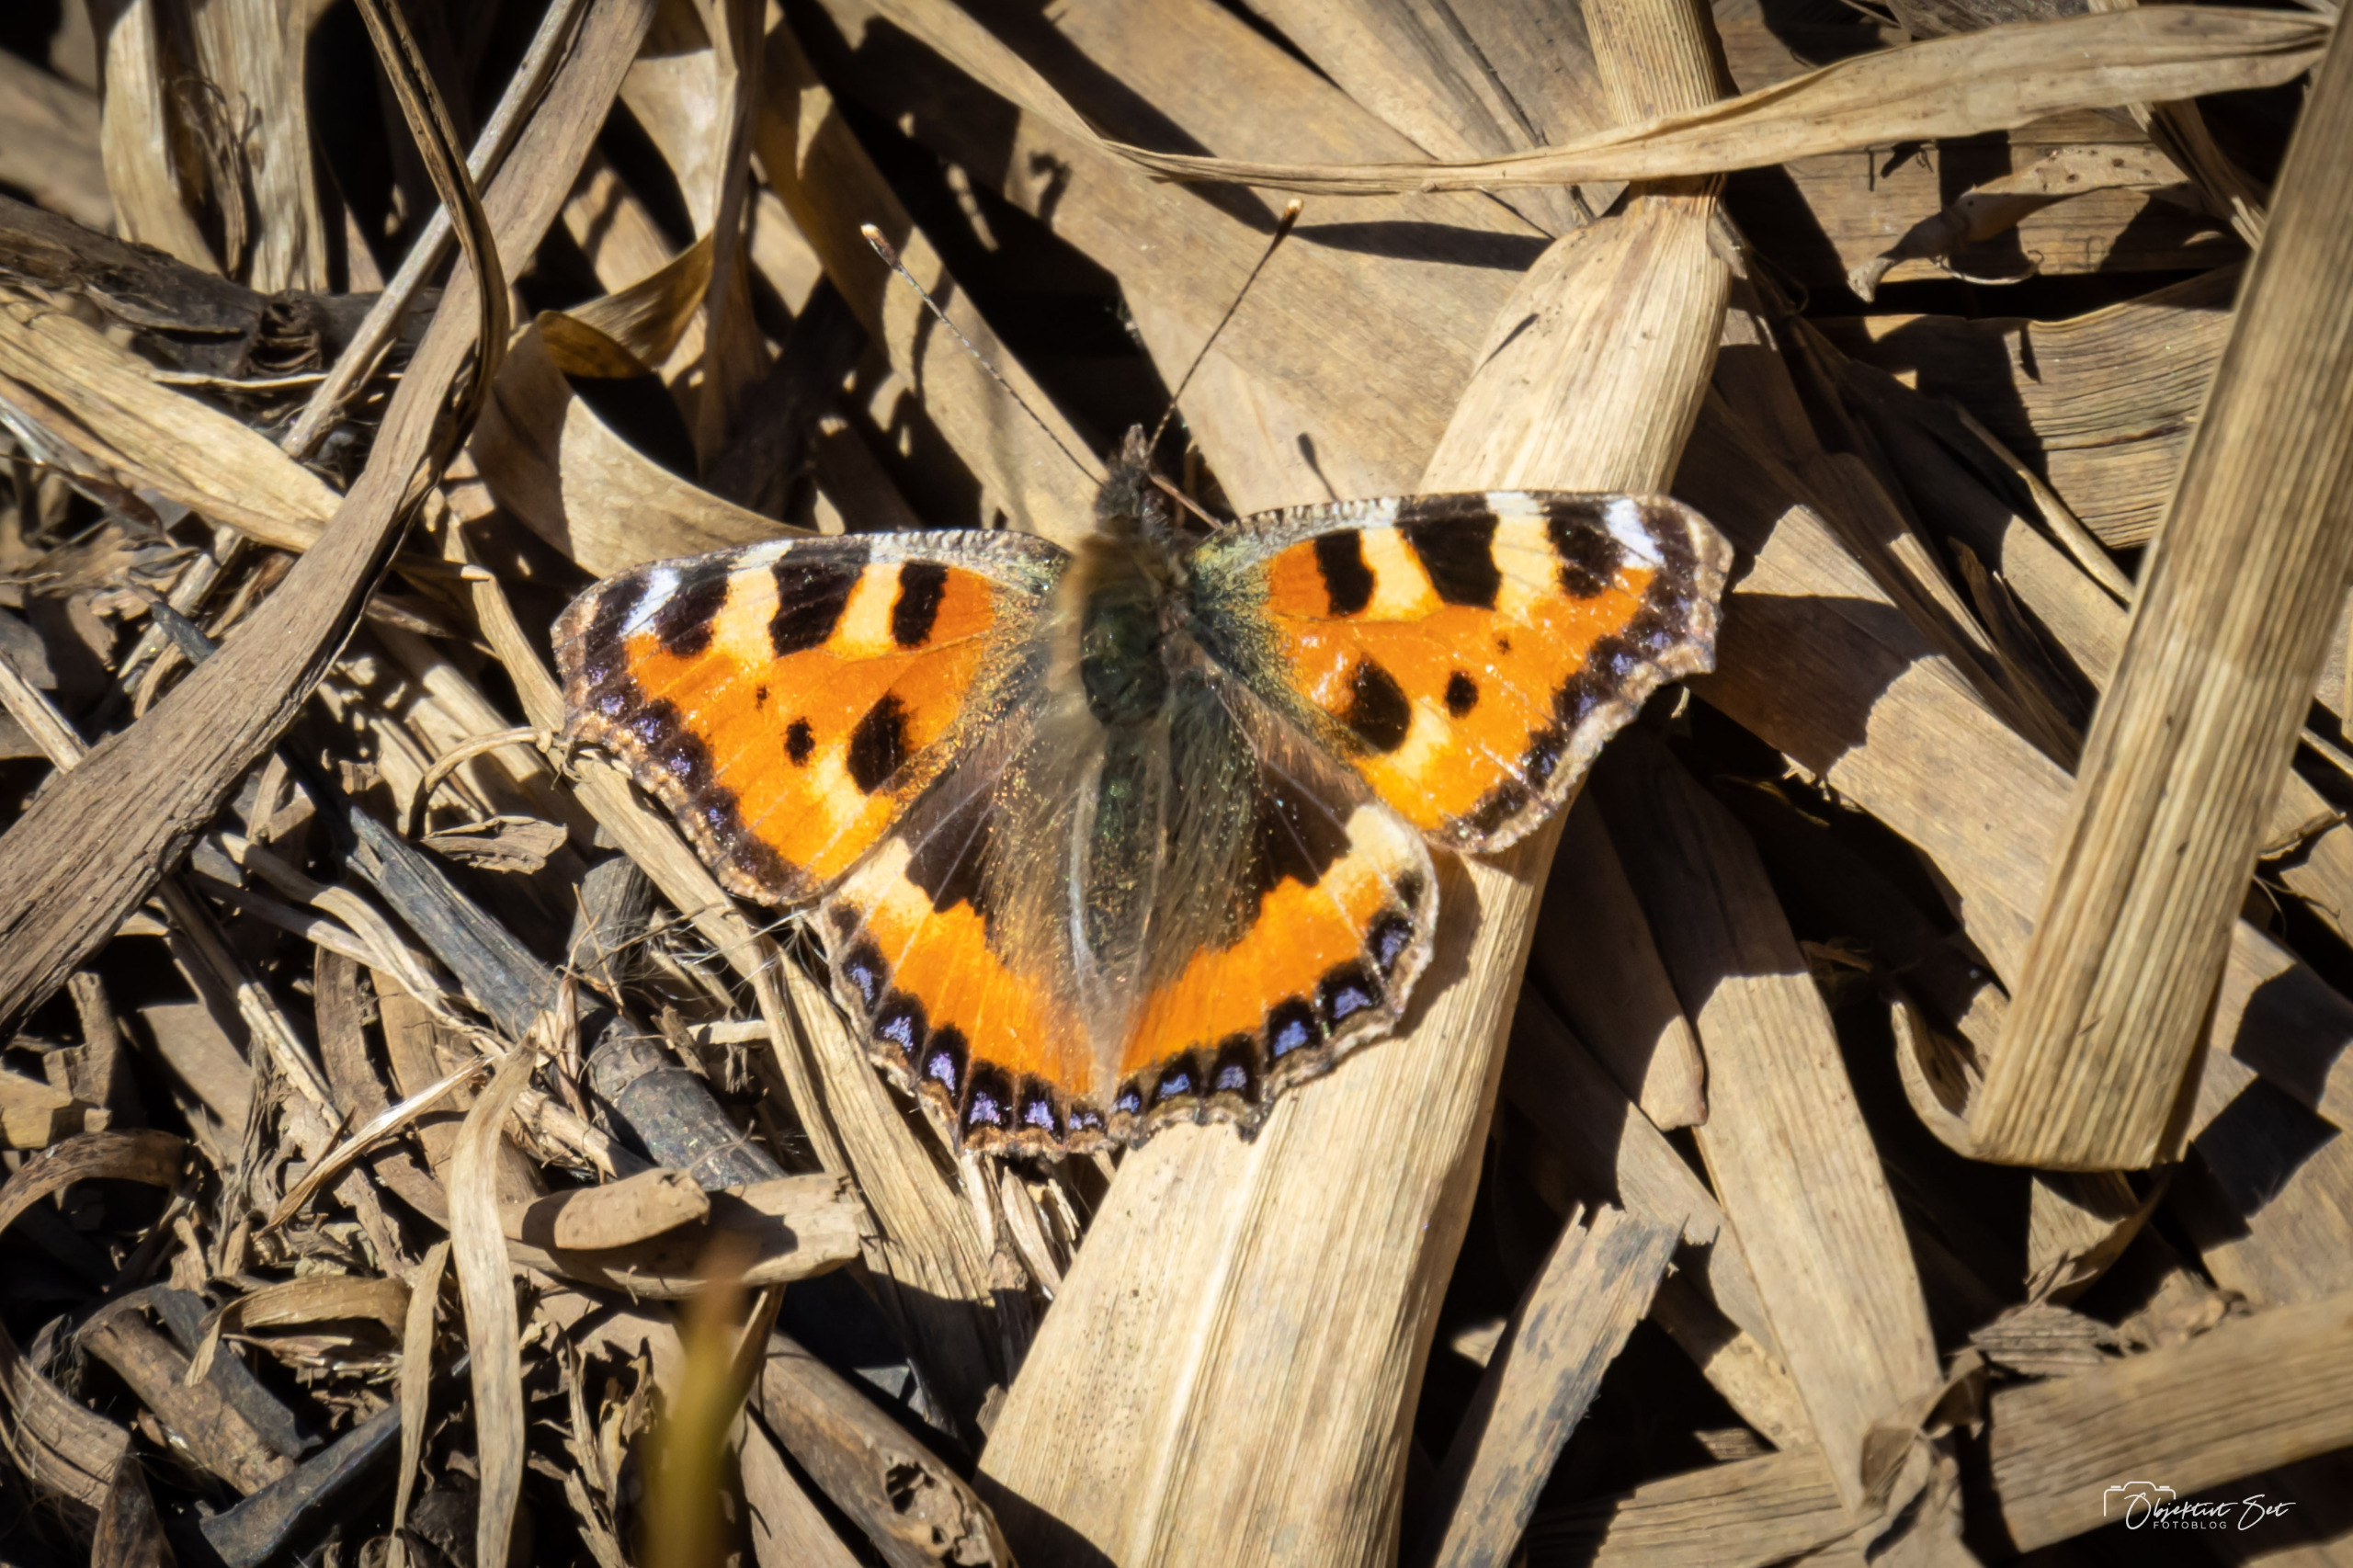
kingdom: Animalia
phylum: Arthropoda
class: Insecta
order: Lepidoptera
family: Nymphalidae
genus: Aglais
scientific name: Aglais urticae
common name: Nældens takvinge
